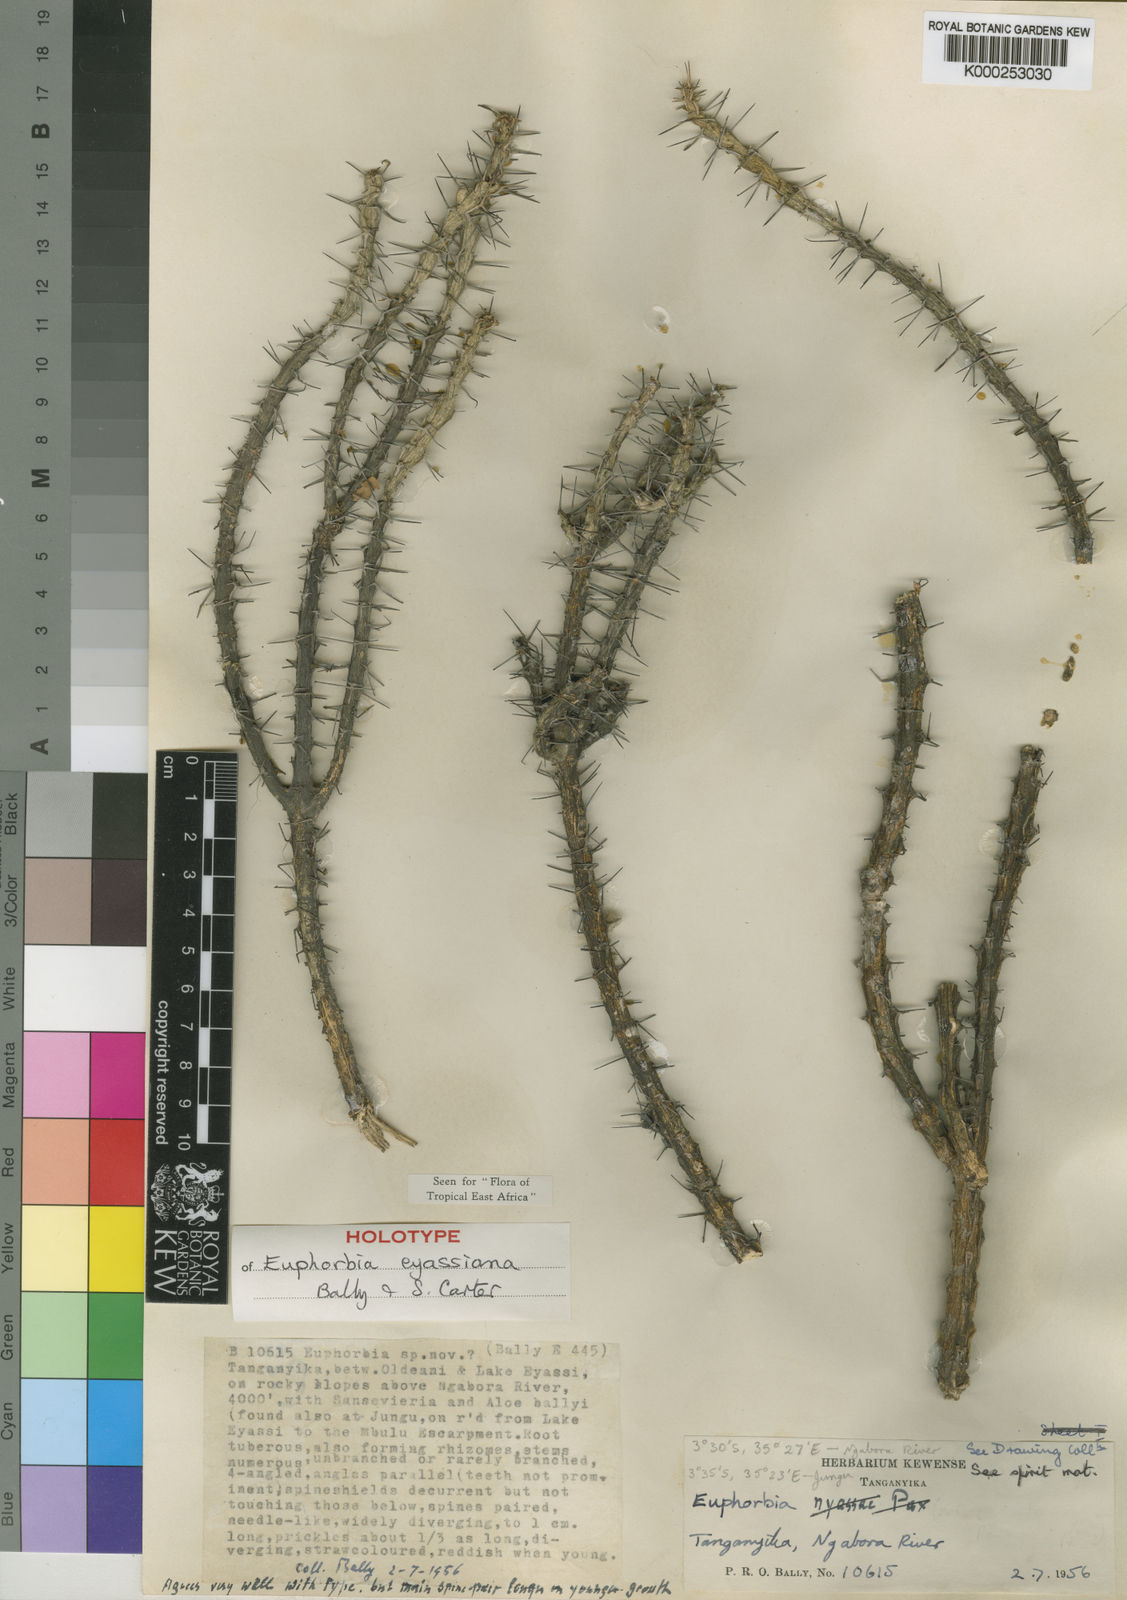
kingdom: Plantae
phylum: Tracheophyta
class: Magnoliopsida
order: Malpighiales
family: Euphorbiaceae
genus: Euphorbia
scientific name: Euphorbia eyassiana
